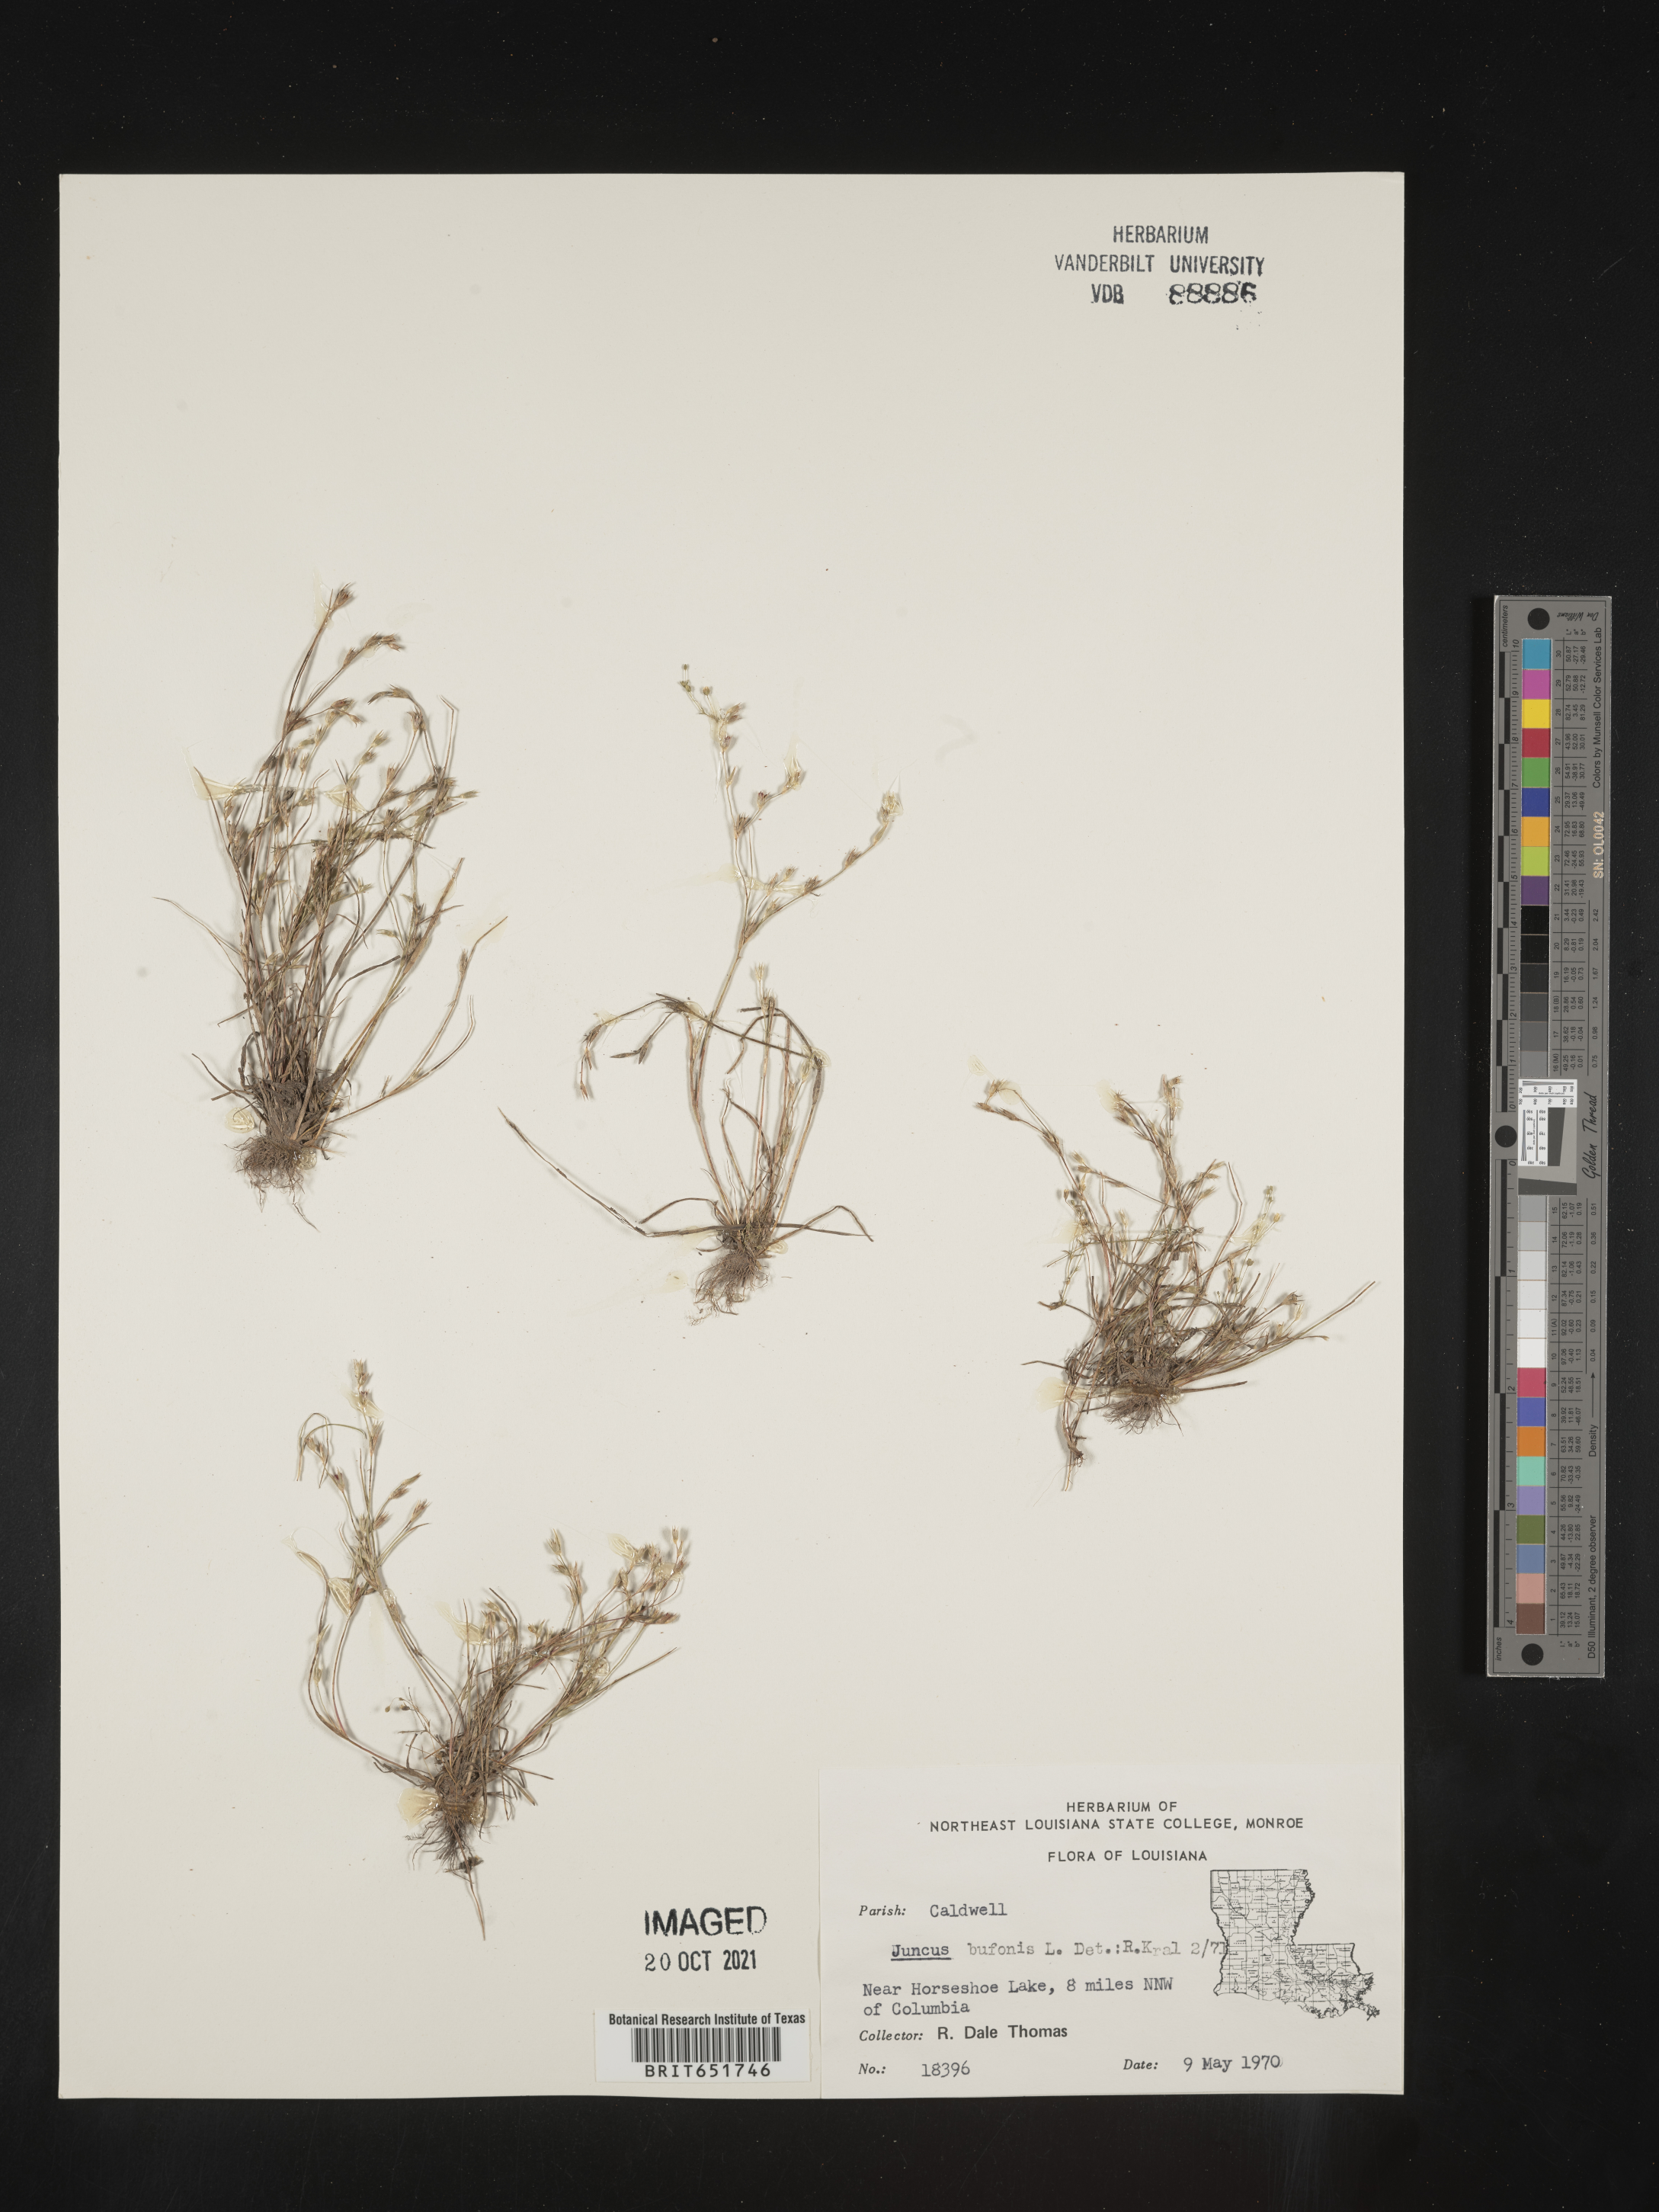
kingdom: Plantae
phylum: Tracheophyta
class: Liliopsida
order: Poales
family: Juncaceae
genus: Juncus
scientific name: Juncus bufonius
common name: Toad rush
